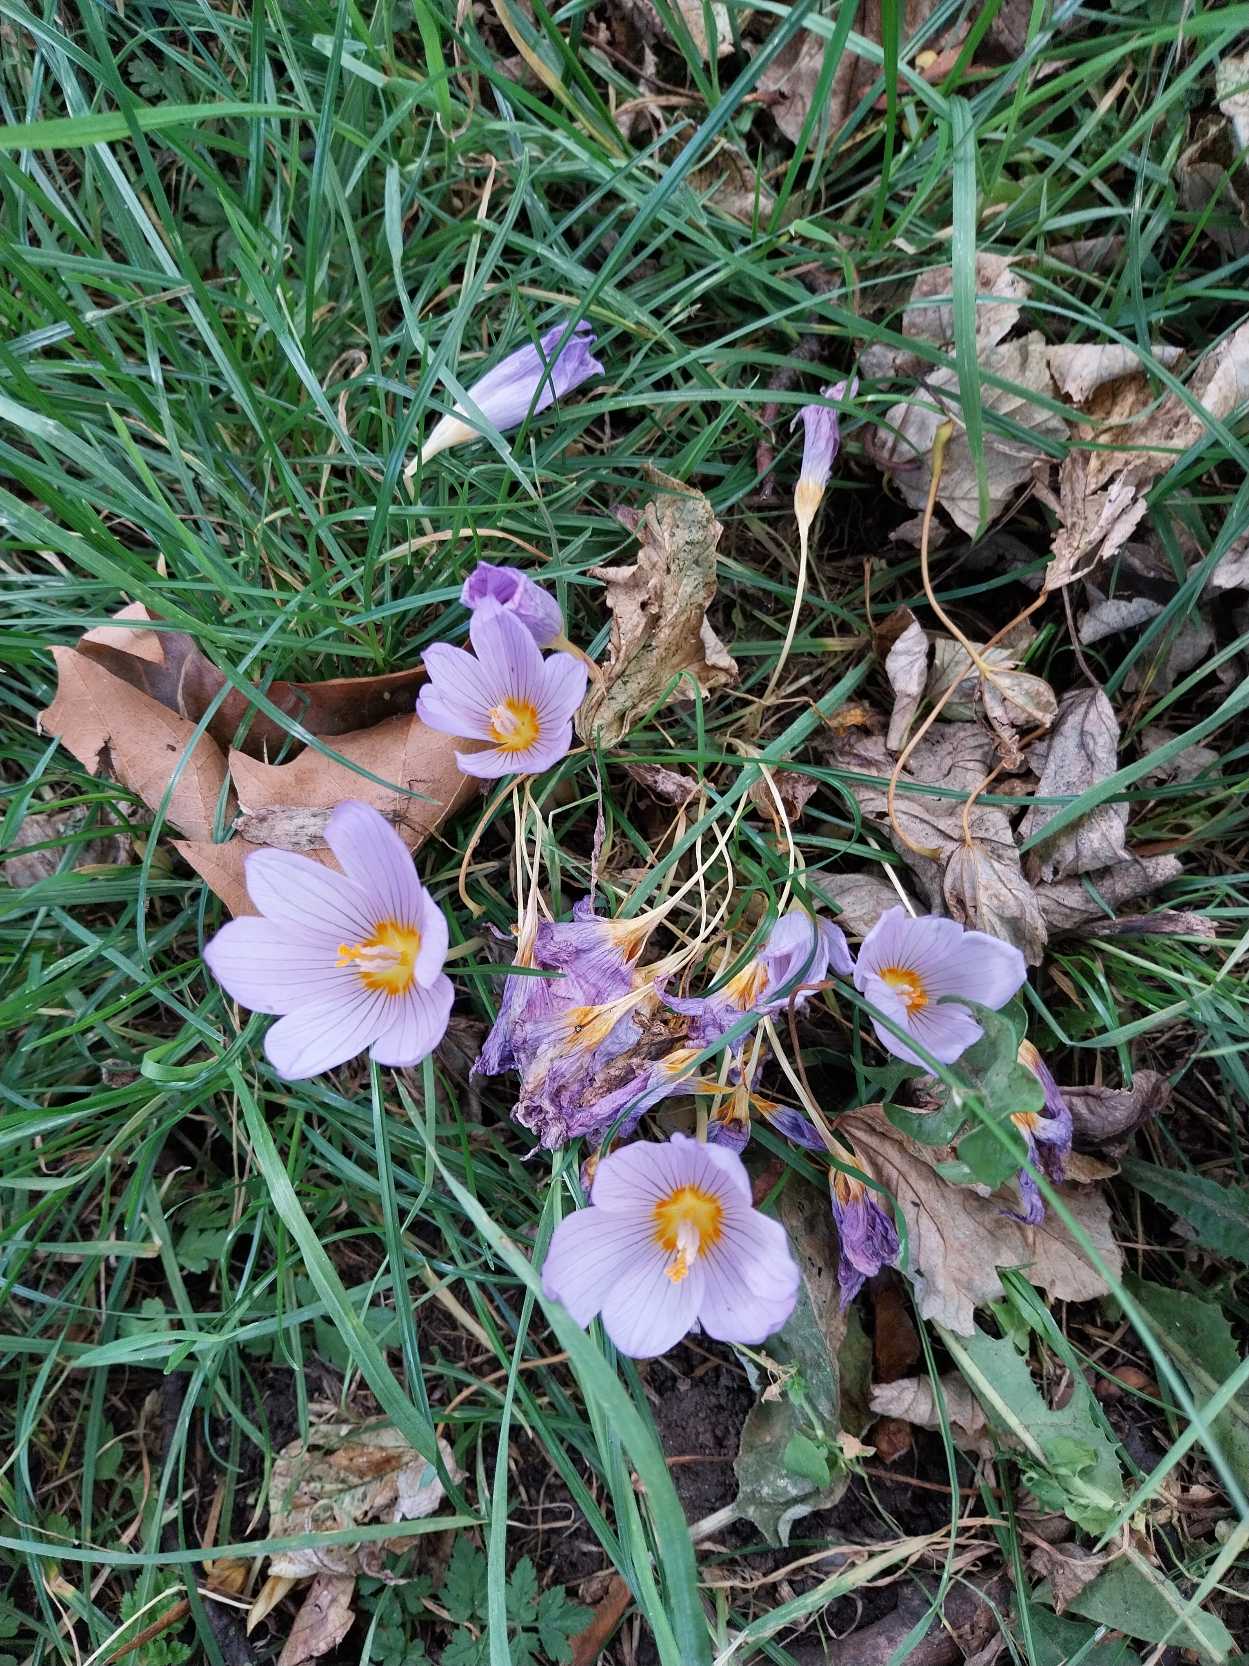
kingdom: Plantae
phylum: Tracheophyta
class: Liliopsida
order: Asparagales
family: Iridaceae
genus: Crocus
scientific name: Crocus kotschyanus
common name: Høst-krokus
